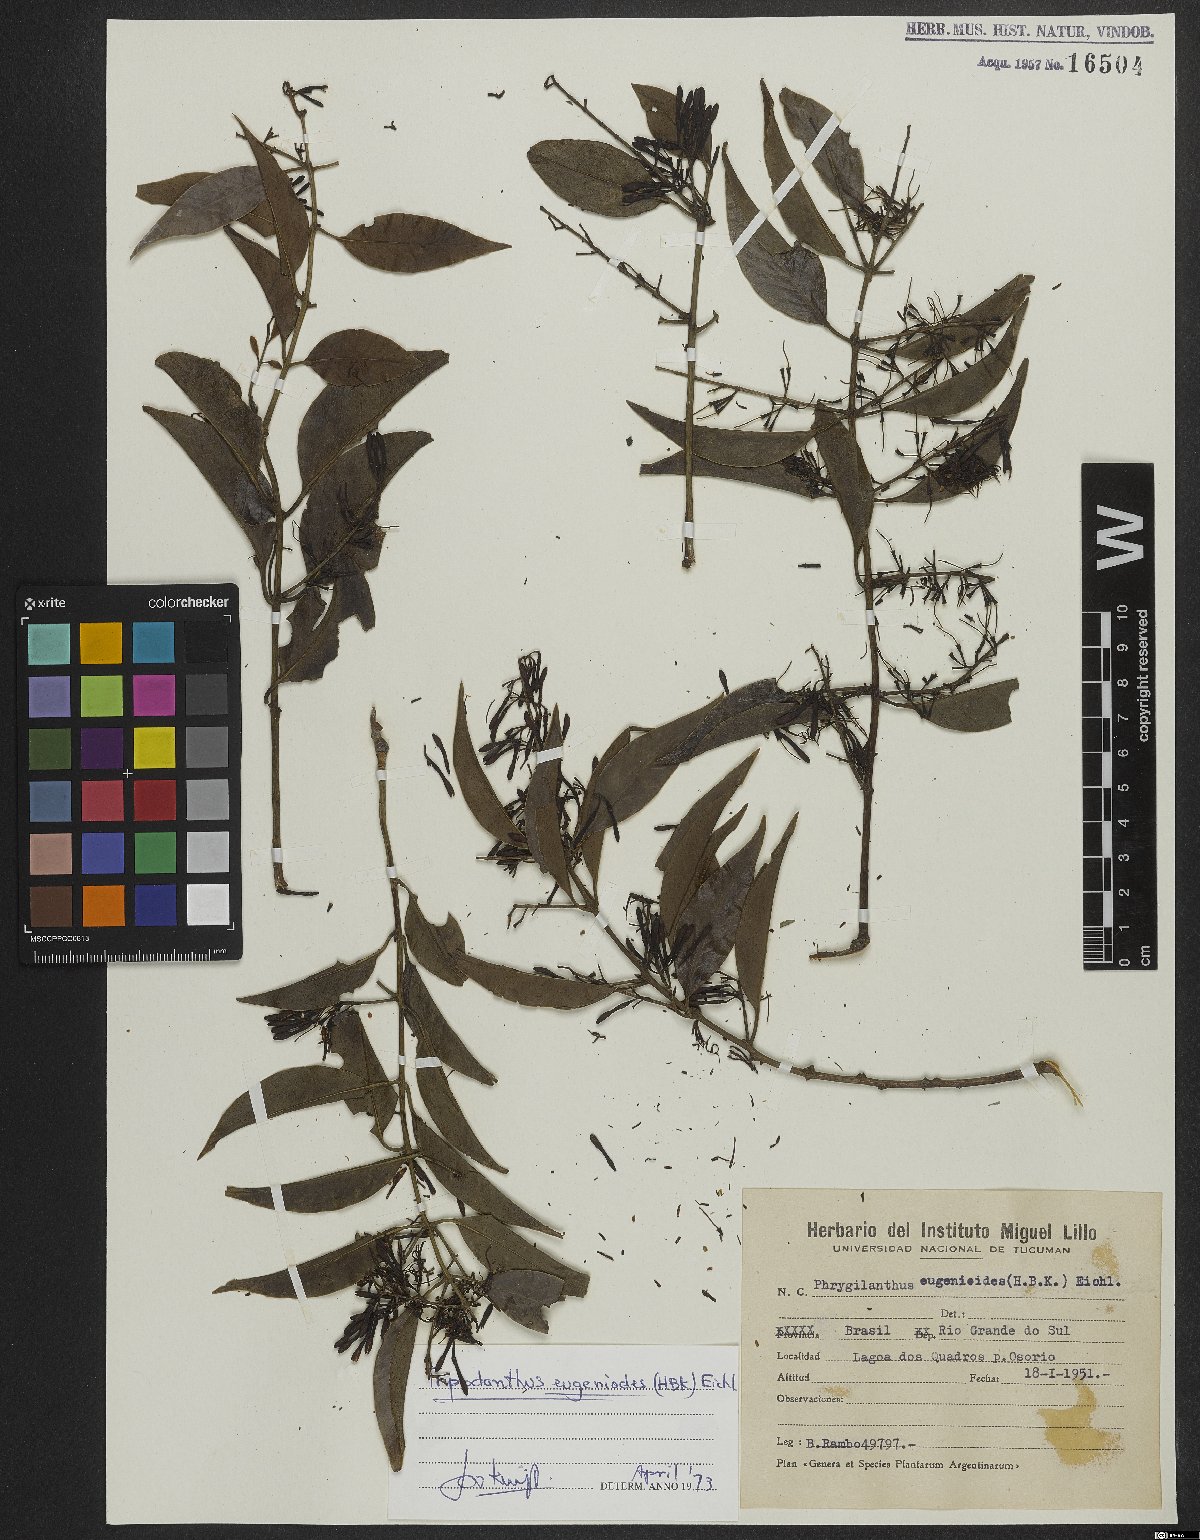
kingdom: Plantae
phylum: Tracheophyta
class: Magnoliopsida
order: Santalales
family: Loranthaceae
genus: Tripodanthus
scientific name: Tripodanthus acutifolius
